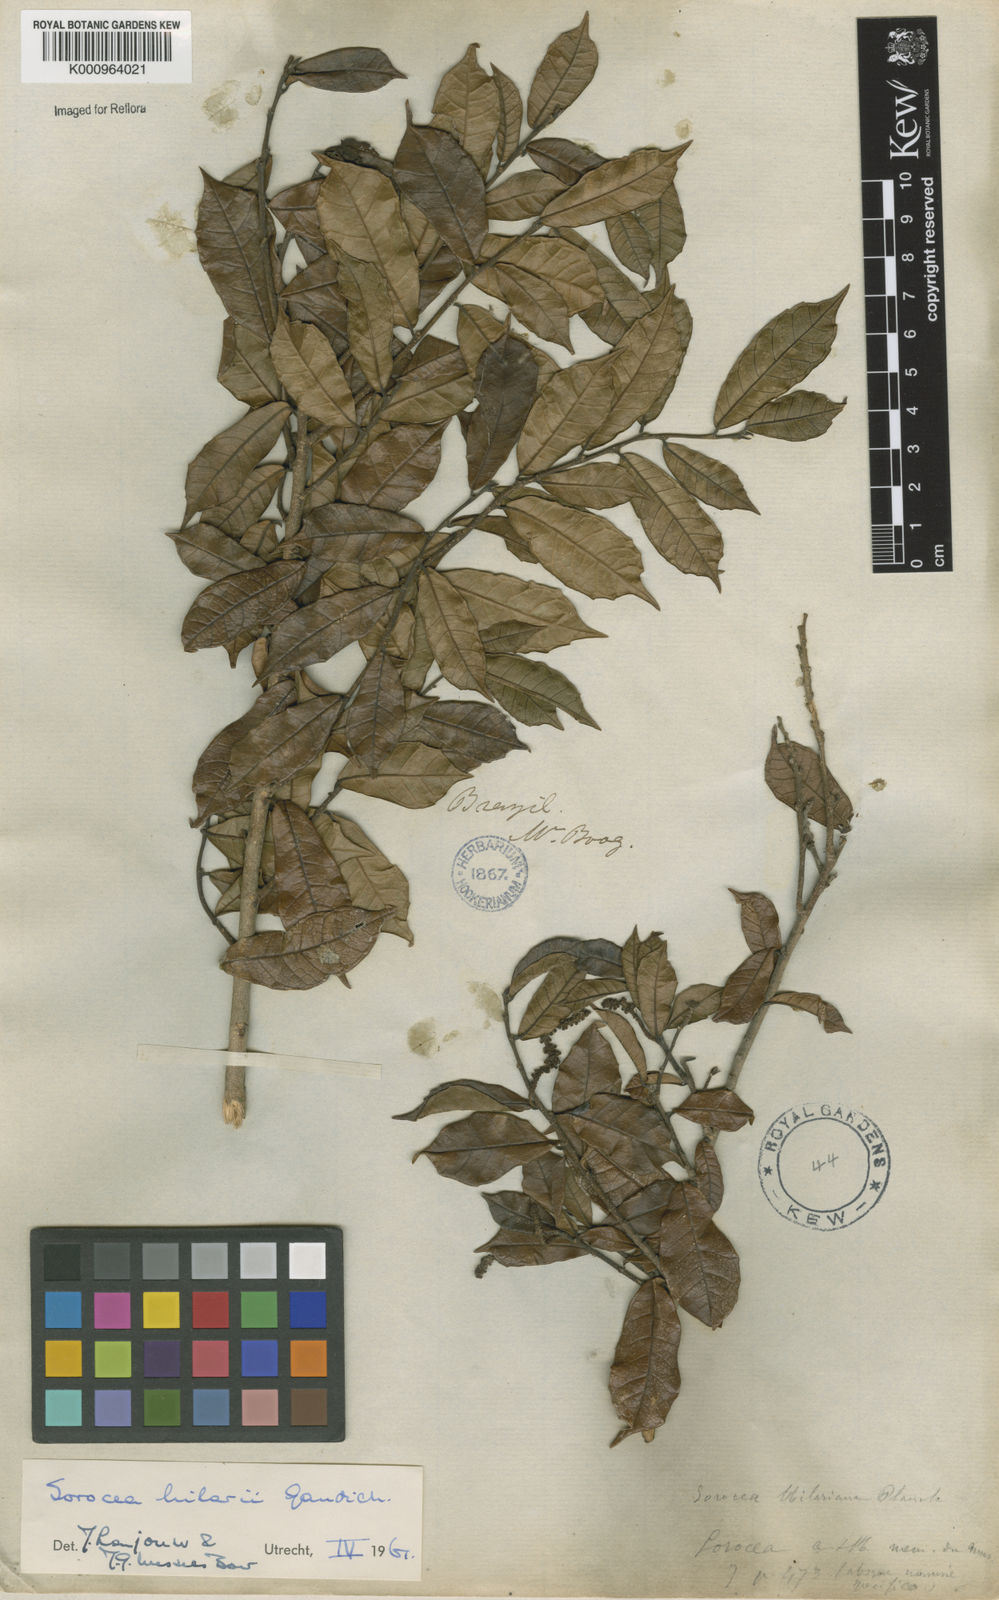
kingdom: Plantae
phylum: Tracheophyta
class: Magnoliopsida
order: Rosales
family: Moraceae
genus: Sorocea
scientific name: Sorocea hilarii
